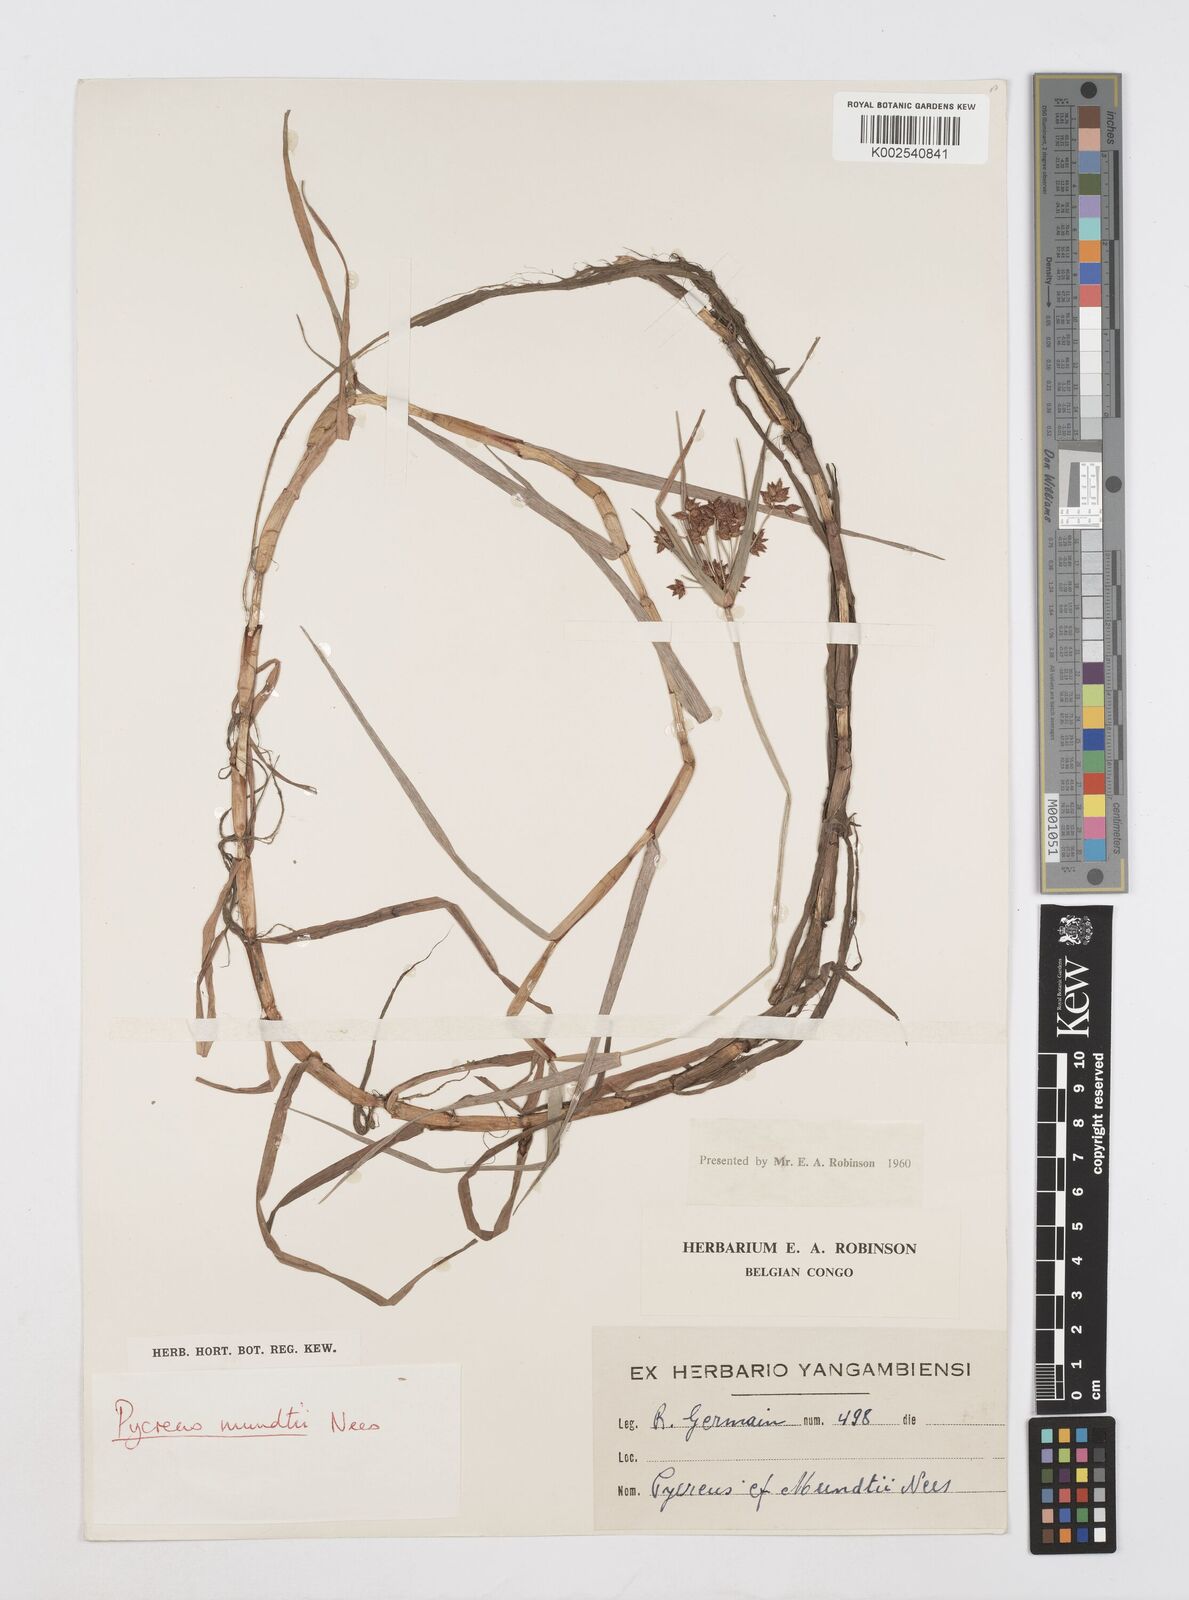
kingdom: Plantae
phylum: Tracheophyta
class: Liliopsida
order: Poales
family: Cyperaceae
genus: Cyperus
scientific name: Cyperus mundii
